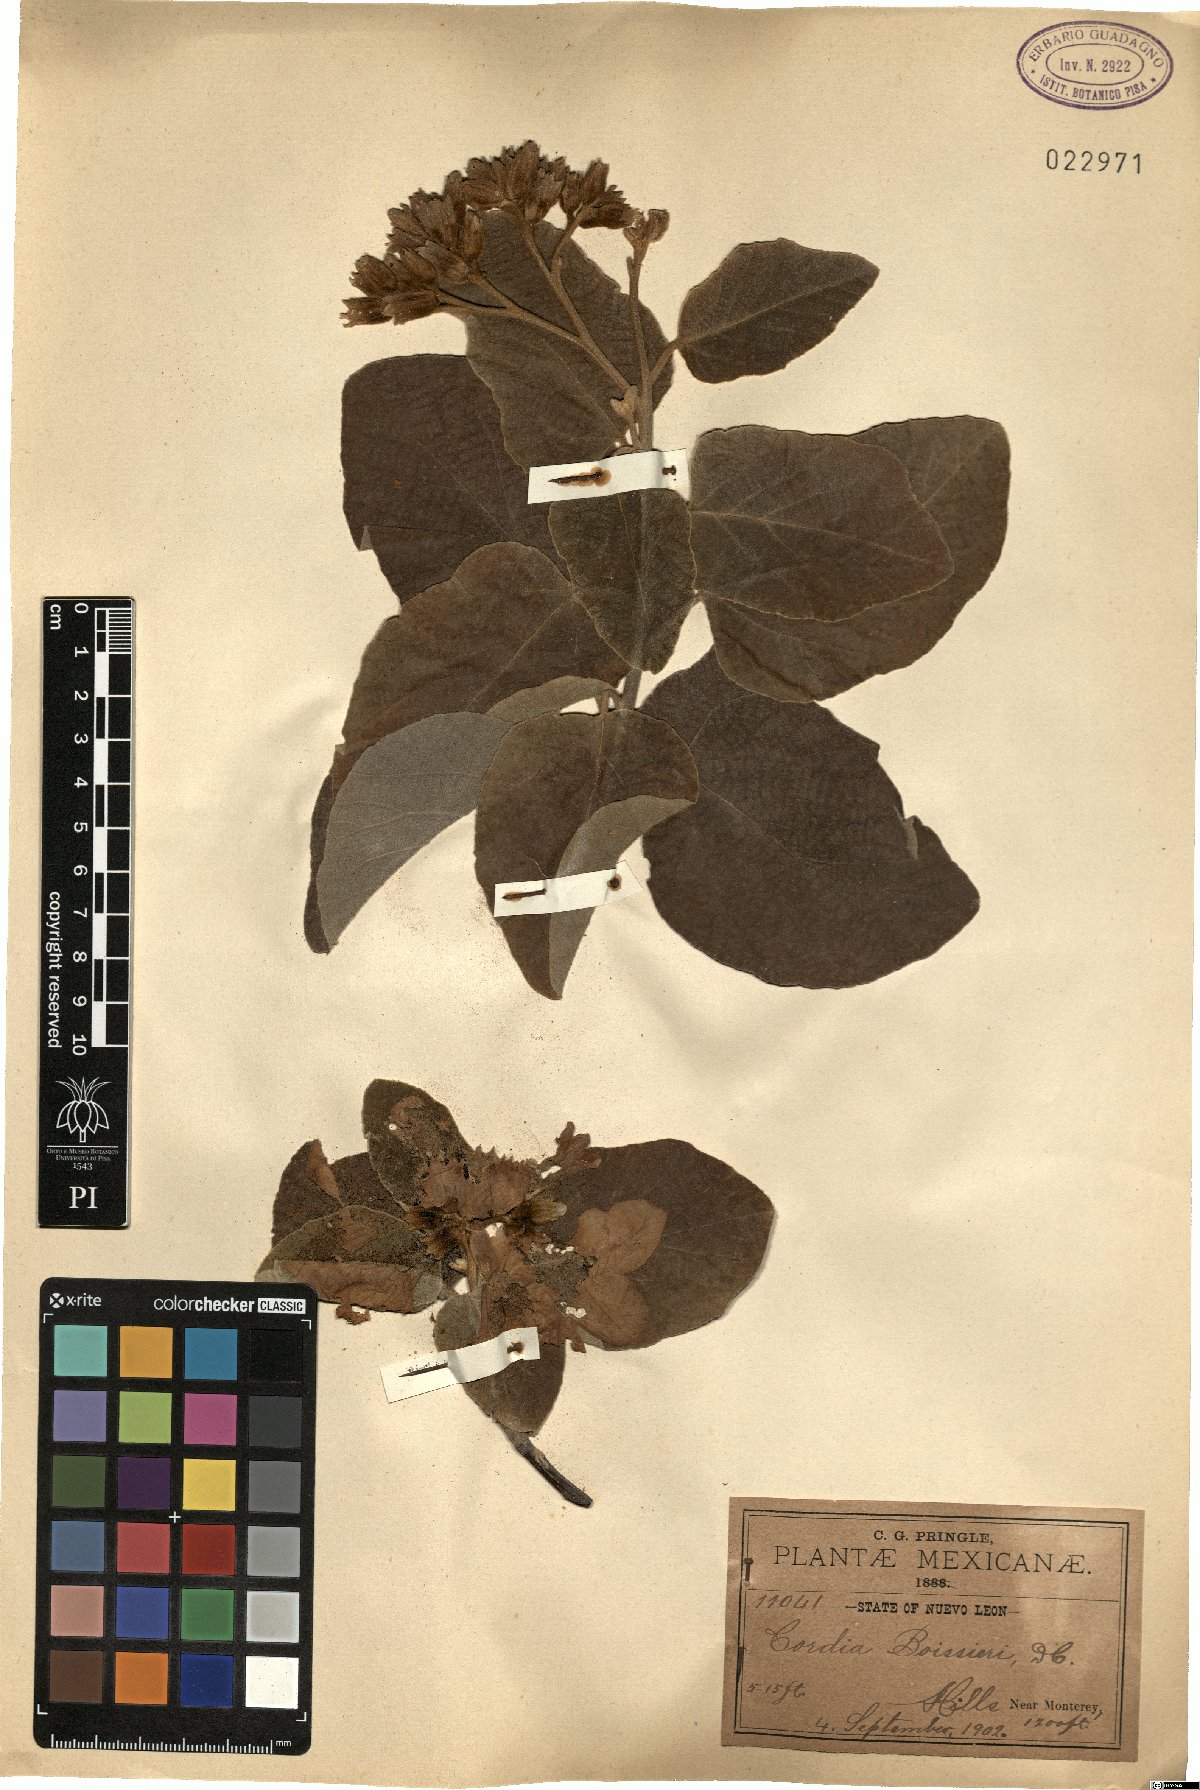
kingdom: Plantae
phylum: Tracheophyta
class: Magnoliopsida
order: Boraginales
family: Cordiaceae
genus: Cordia
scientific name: Cordia boissieri
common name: Mexican-olive
